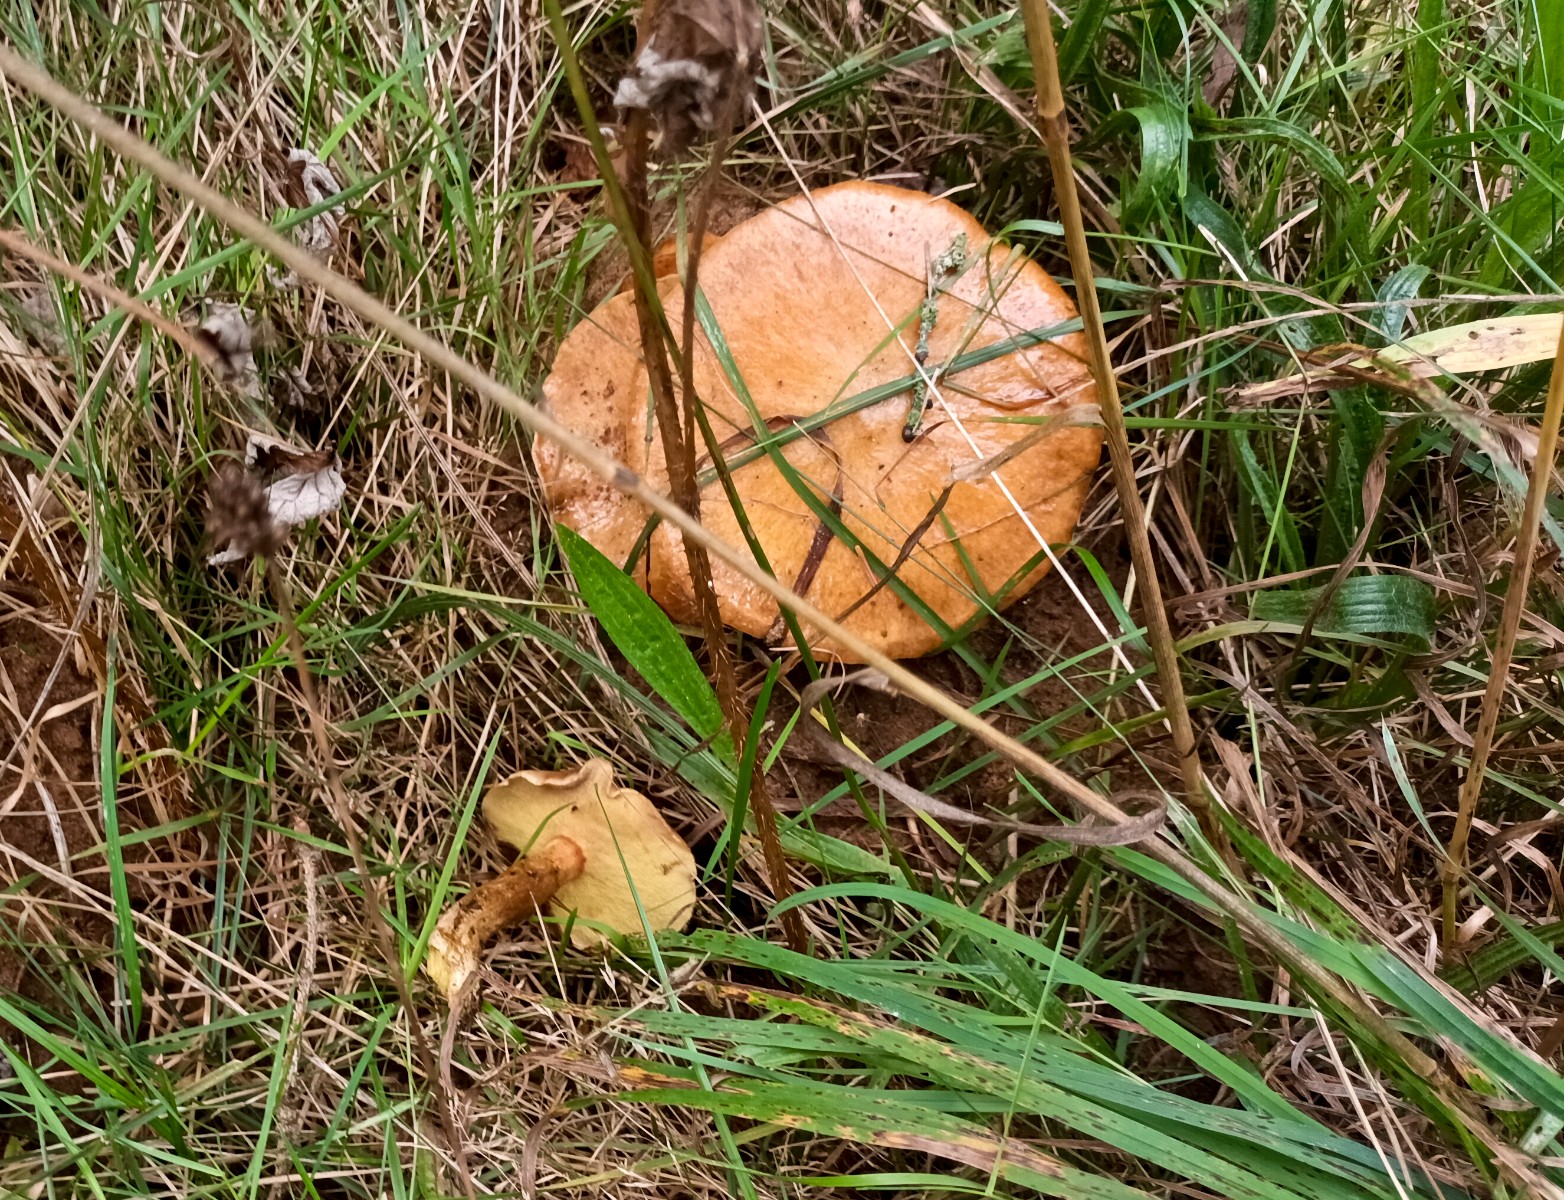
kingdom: Fungi
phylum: Basidiomycota
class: Agaricomycetes
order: Boletales
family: Suillaceae
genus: Suillus
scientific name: Suillus grevillei
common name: lærke-slimrørhat
